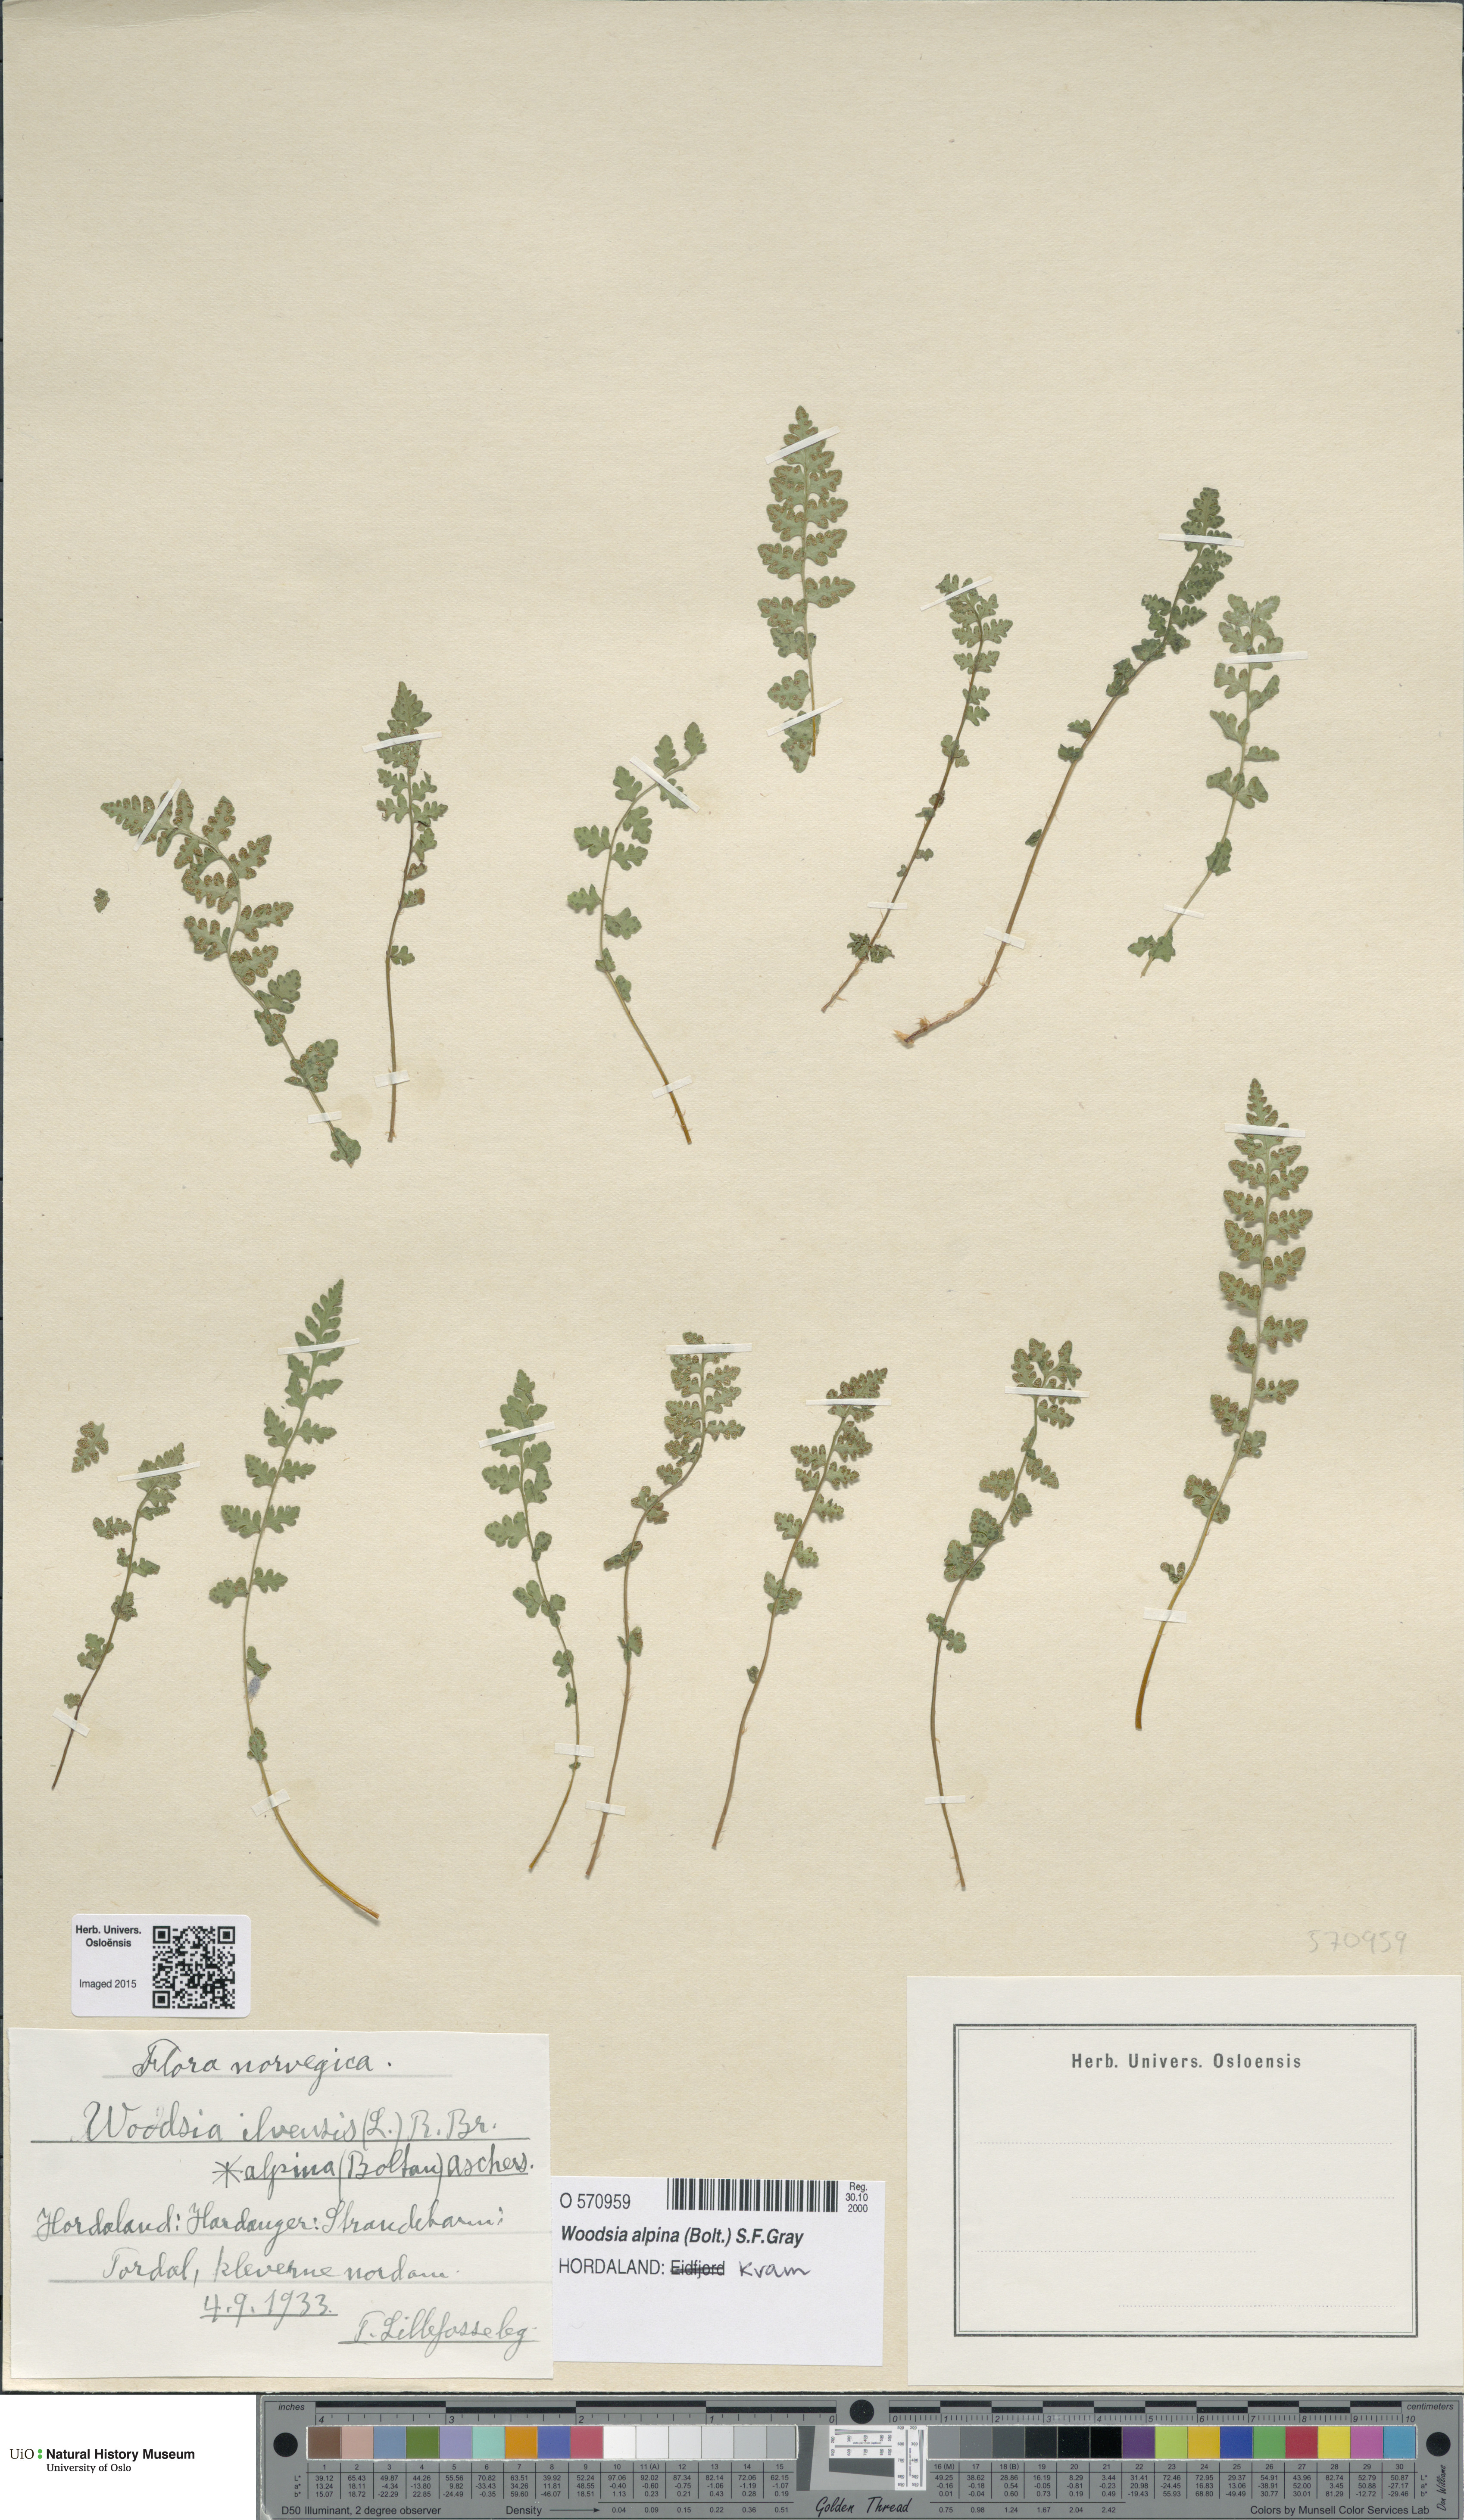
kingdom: Plantae
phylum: Tracheophyta
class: Polypodiopsida
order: Polypodiales
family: Woodsiaceae
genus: Woodsia
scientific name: Woodsia alpina
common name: Alpine woodsia
